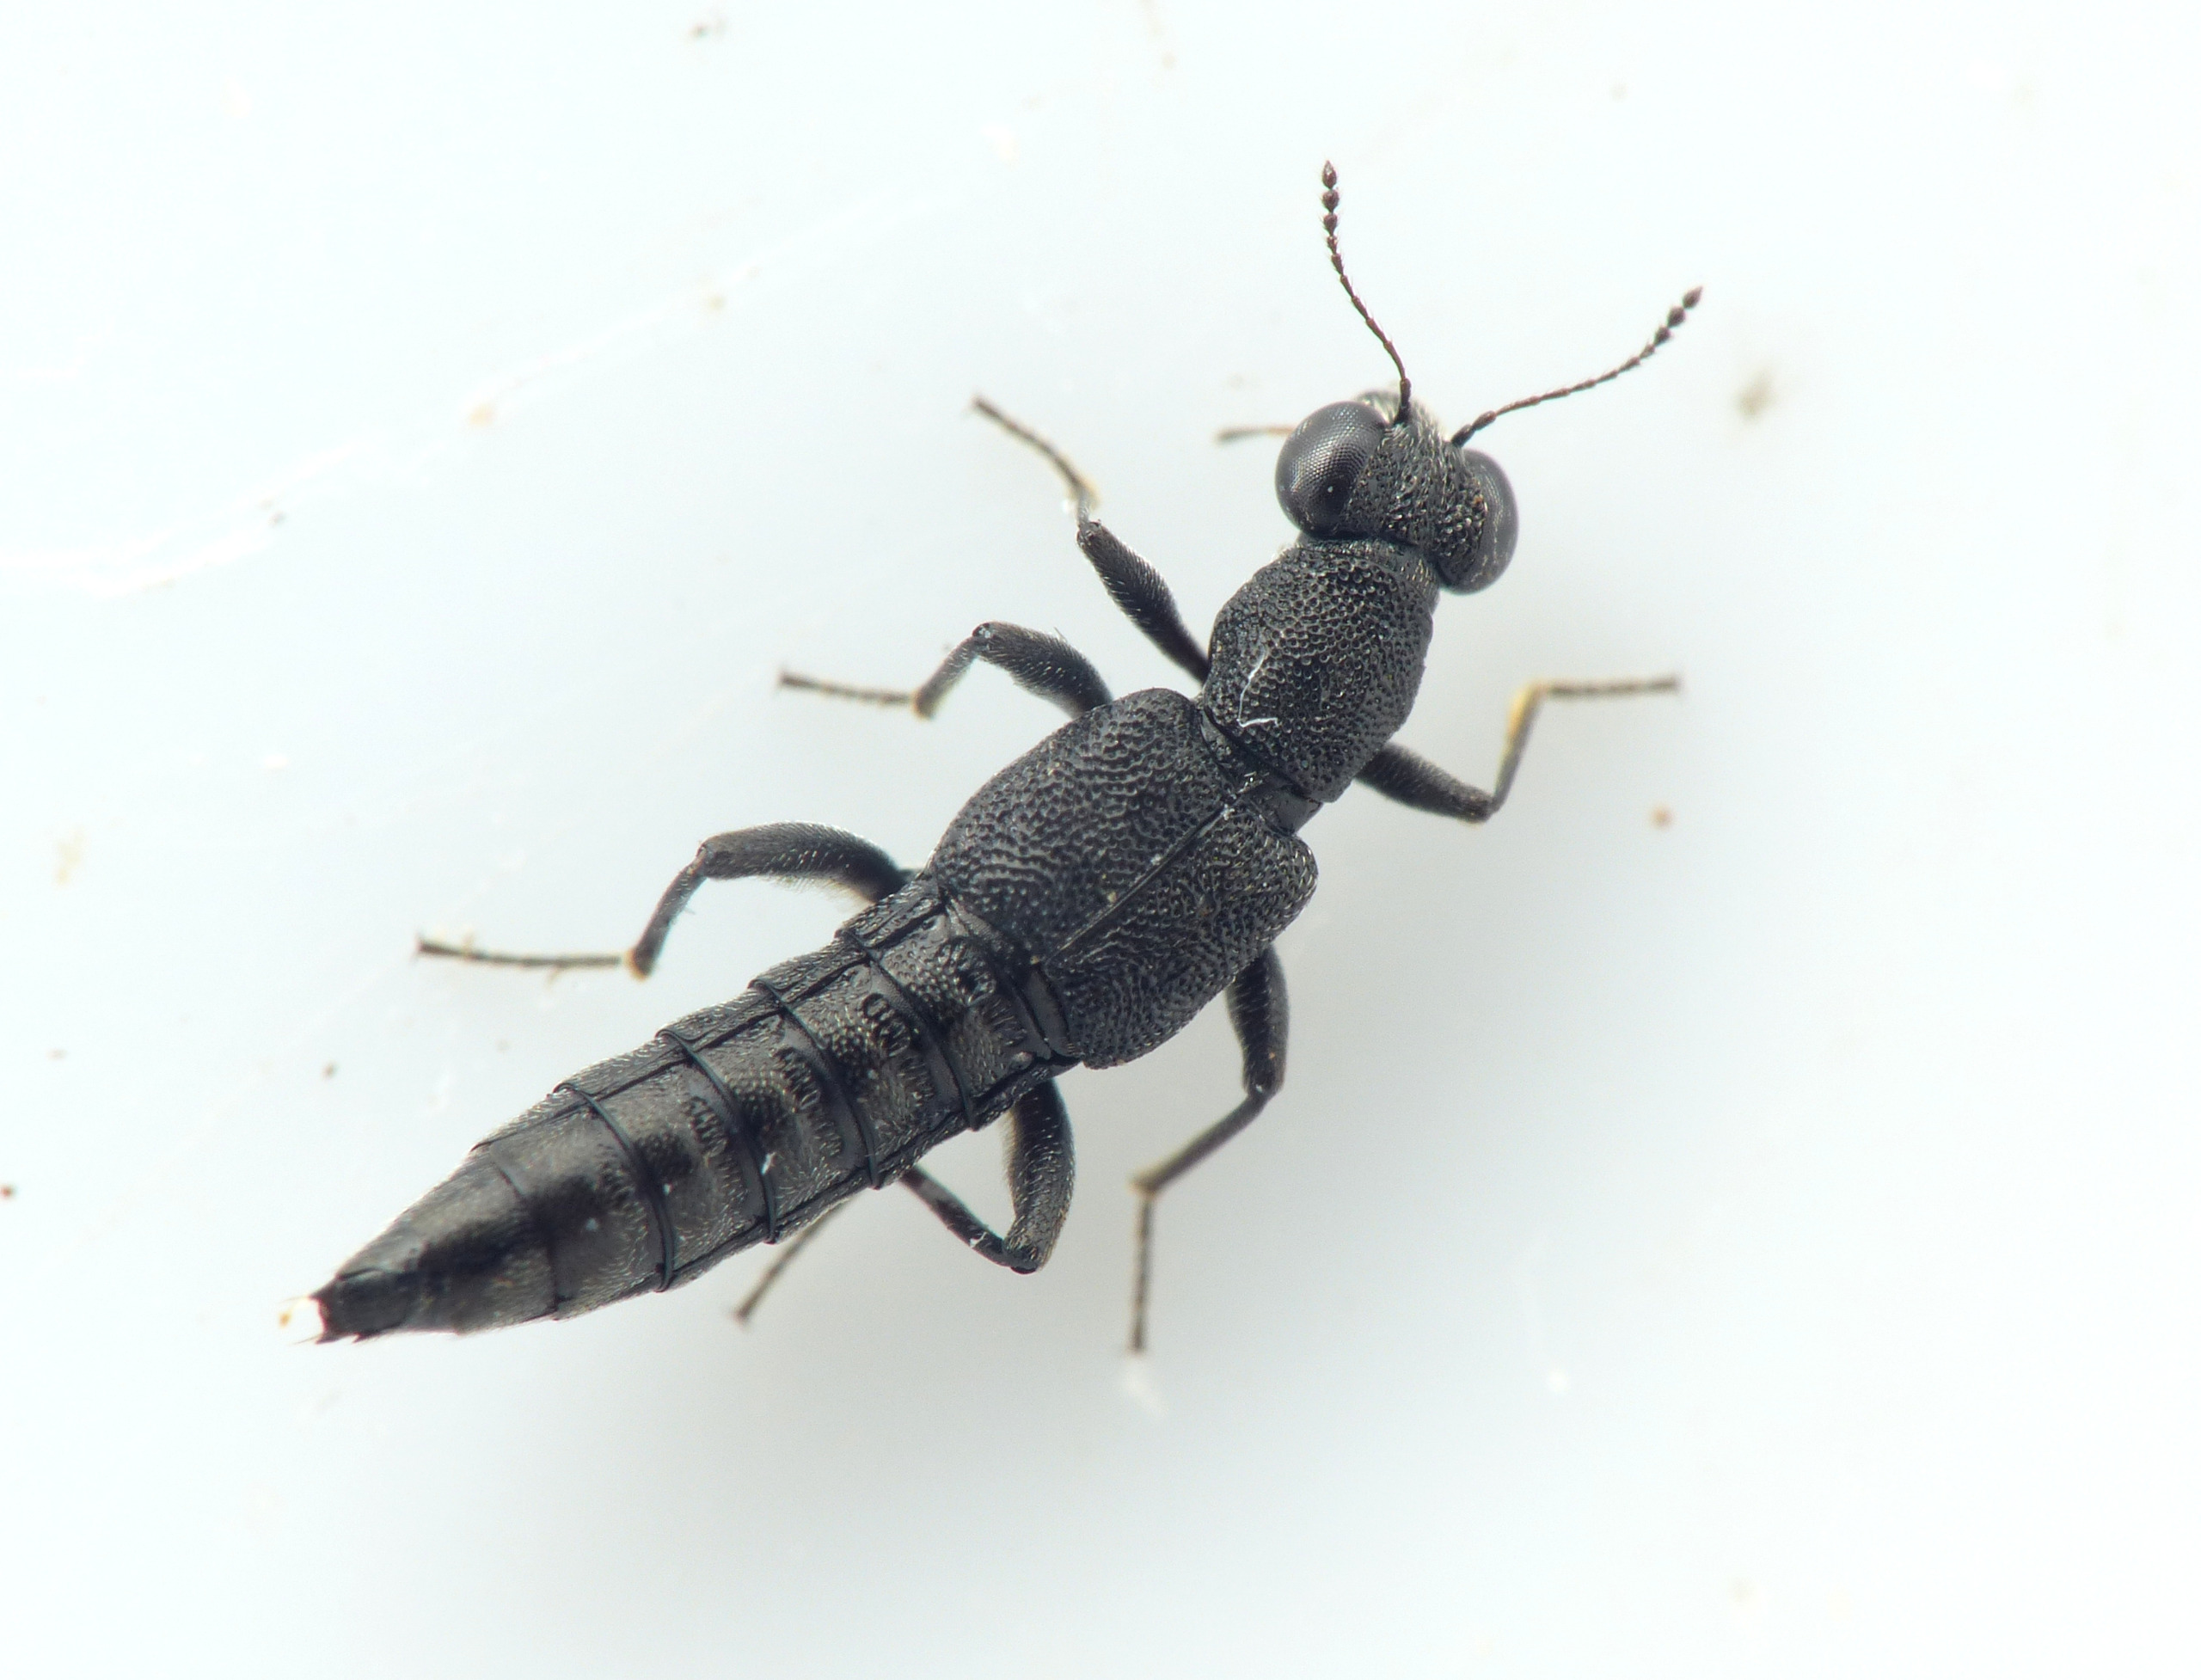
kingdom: Animalia
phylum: Arthropoda
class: Insecta
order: Coleoptera
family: Staphylinidae
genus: Stenus
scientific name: Stenus juno
